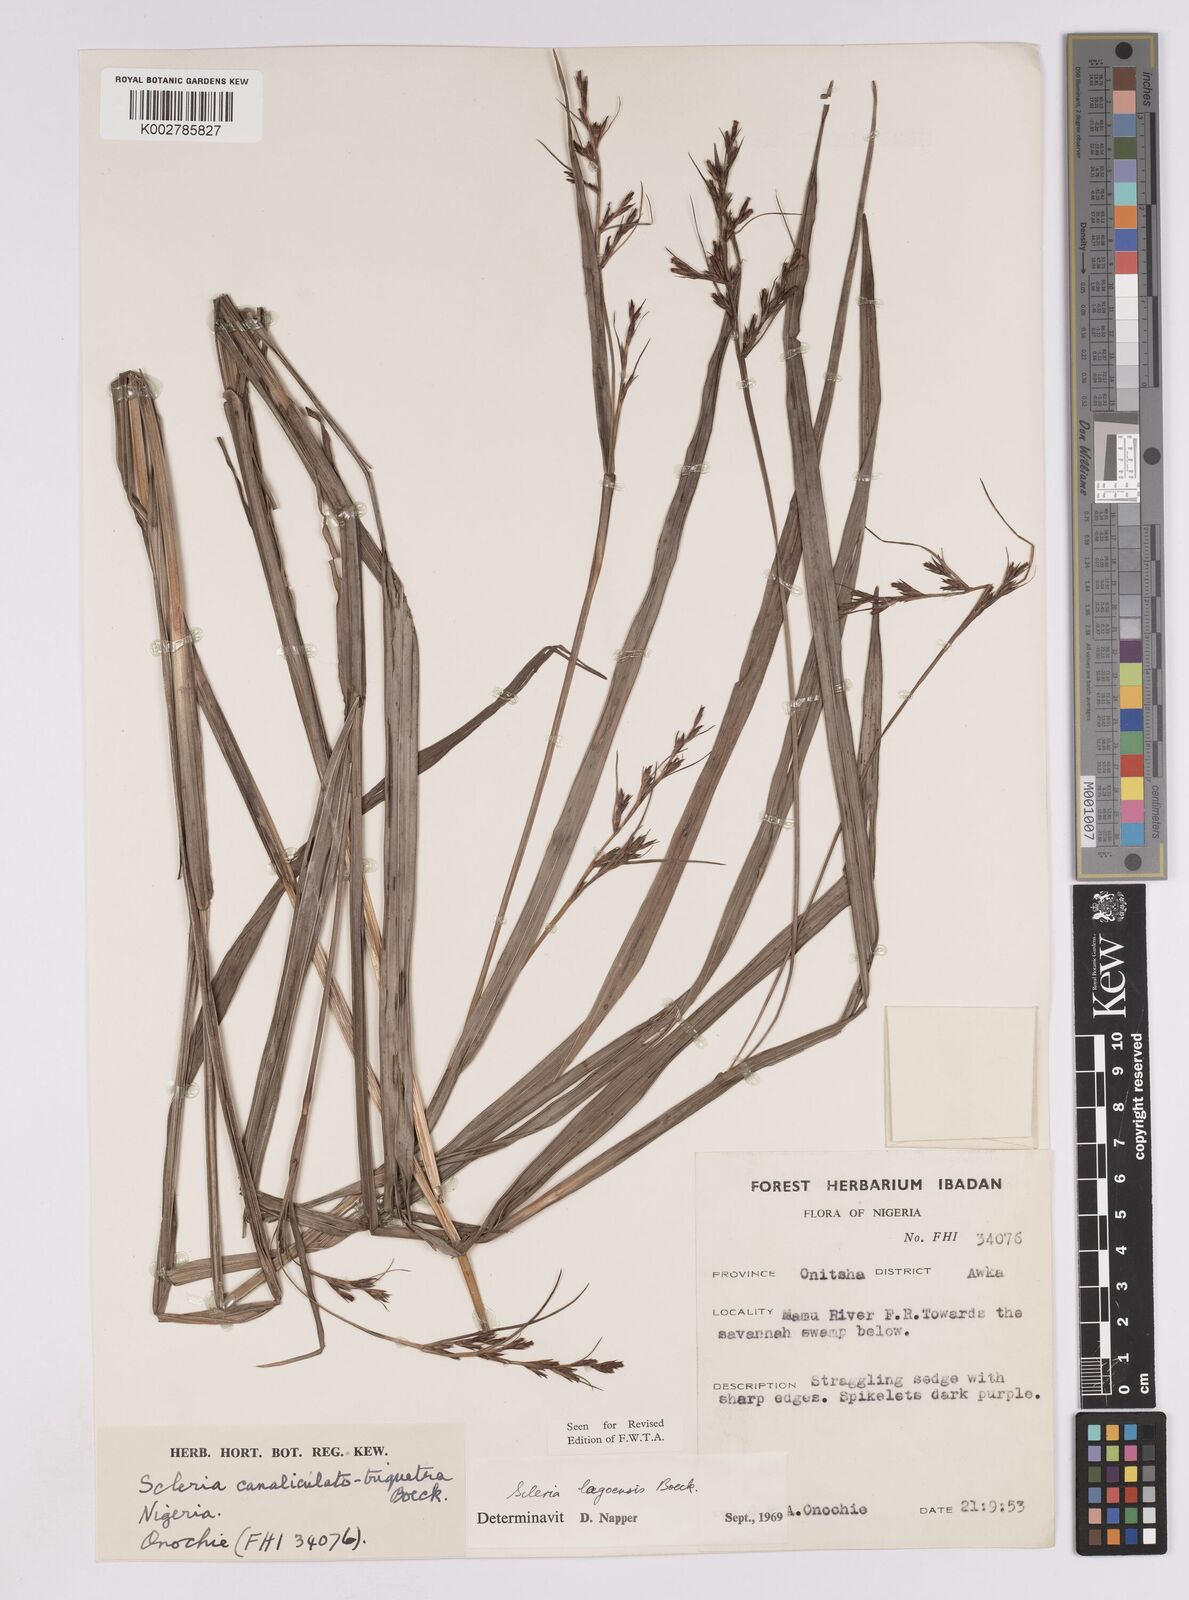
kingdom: Plantae
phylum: Tracheophyta
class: Liliopsida
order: Poales
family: Cyperaceae
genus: Scleria
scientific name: Scleria lagoensis
